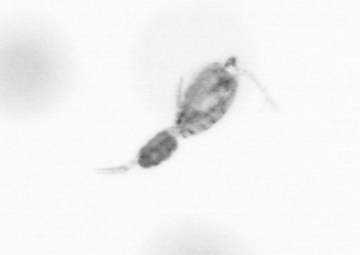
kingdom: Animalia
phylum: Arthropoda
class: Copepoda
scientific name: Copepoda
